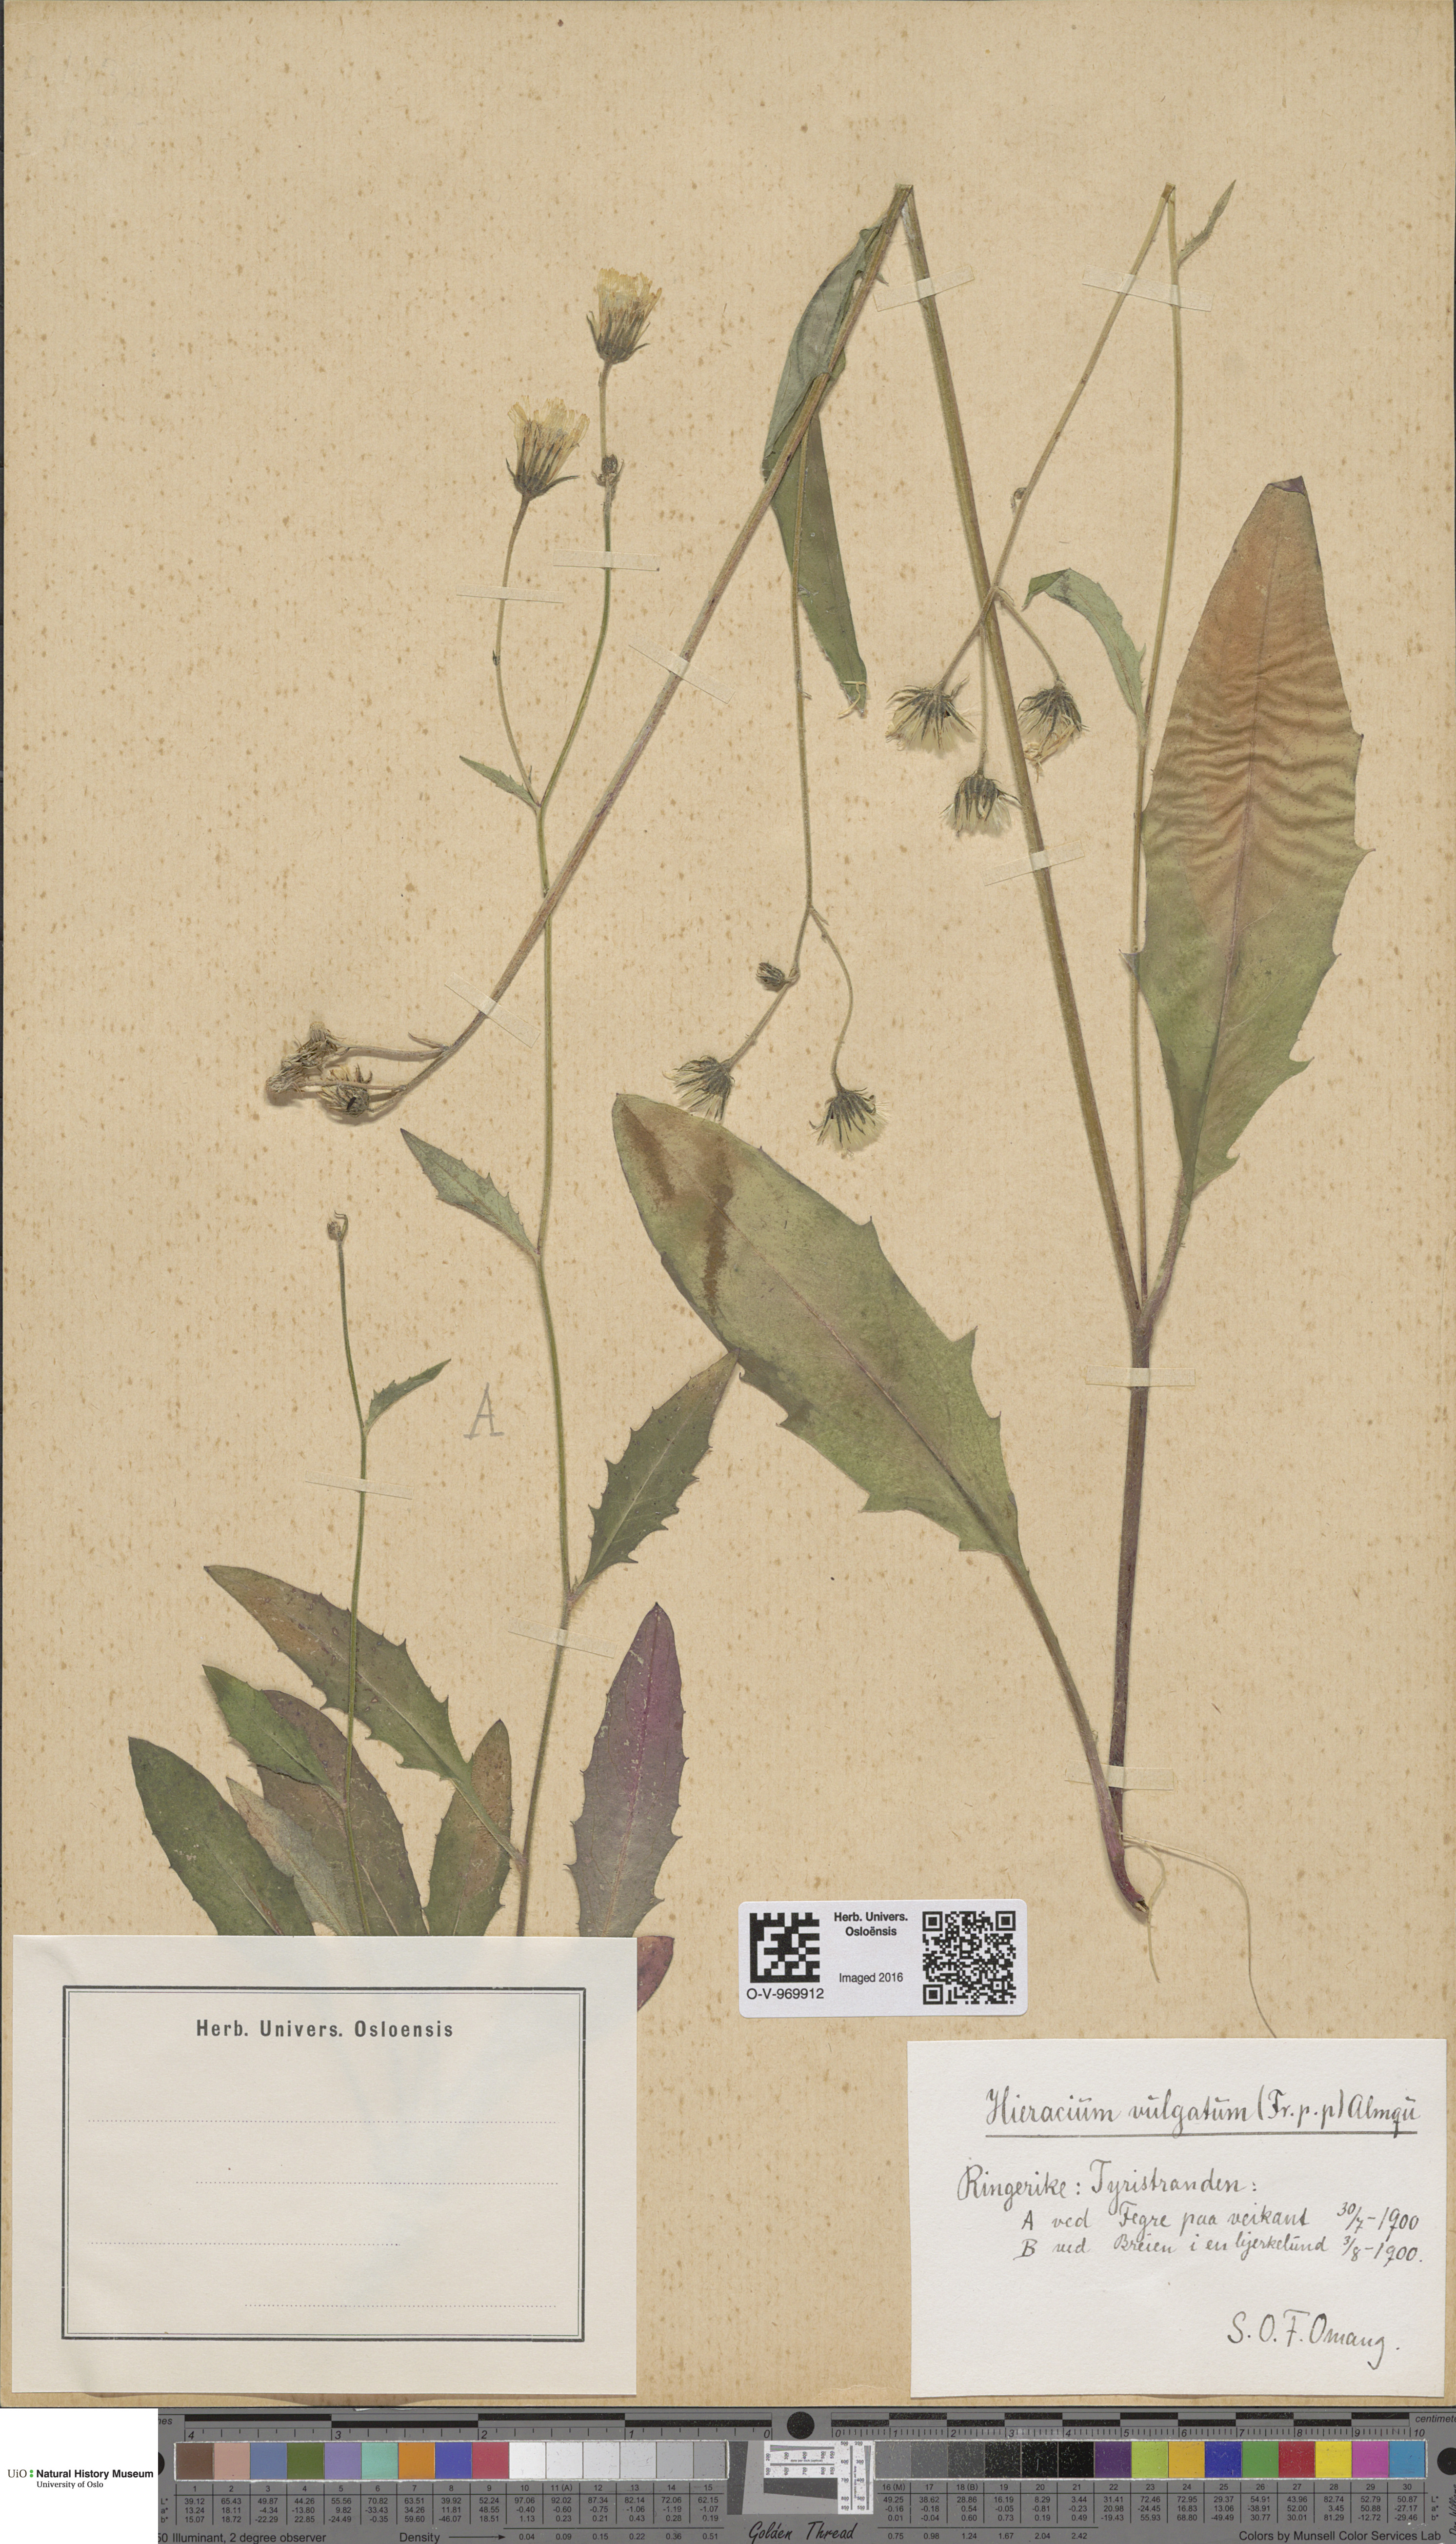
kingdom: Plantae
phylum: Tracheophyta
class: Magnoliopsida
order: Asterales
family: Asteraceae
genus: Hieracium
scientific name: Hieracium vulgatum
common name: Common hawkweed
